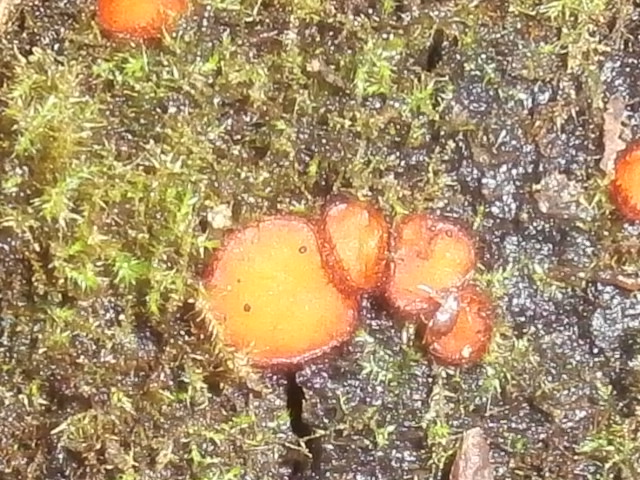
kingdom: Fungi
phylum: Ascomycota
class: Pezizomycetes
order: Pezizales
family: Pyronemataceae
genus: Scutellinia
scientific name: Scutellinia scutellata
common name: frynset skjoldbæger
